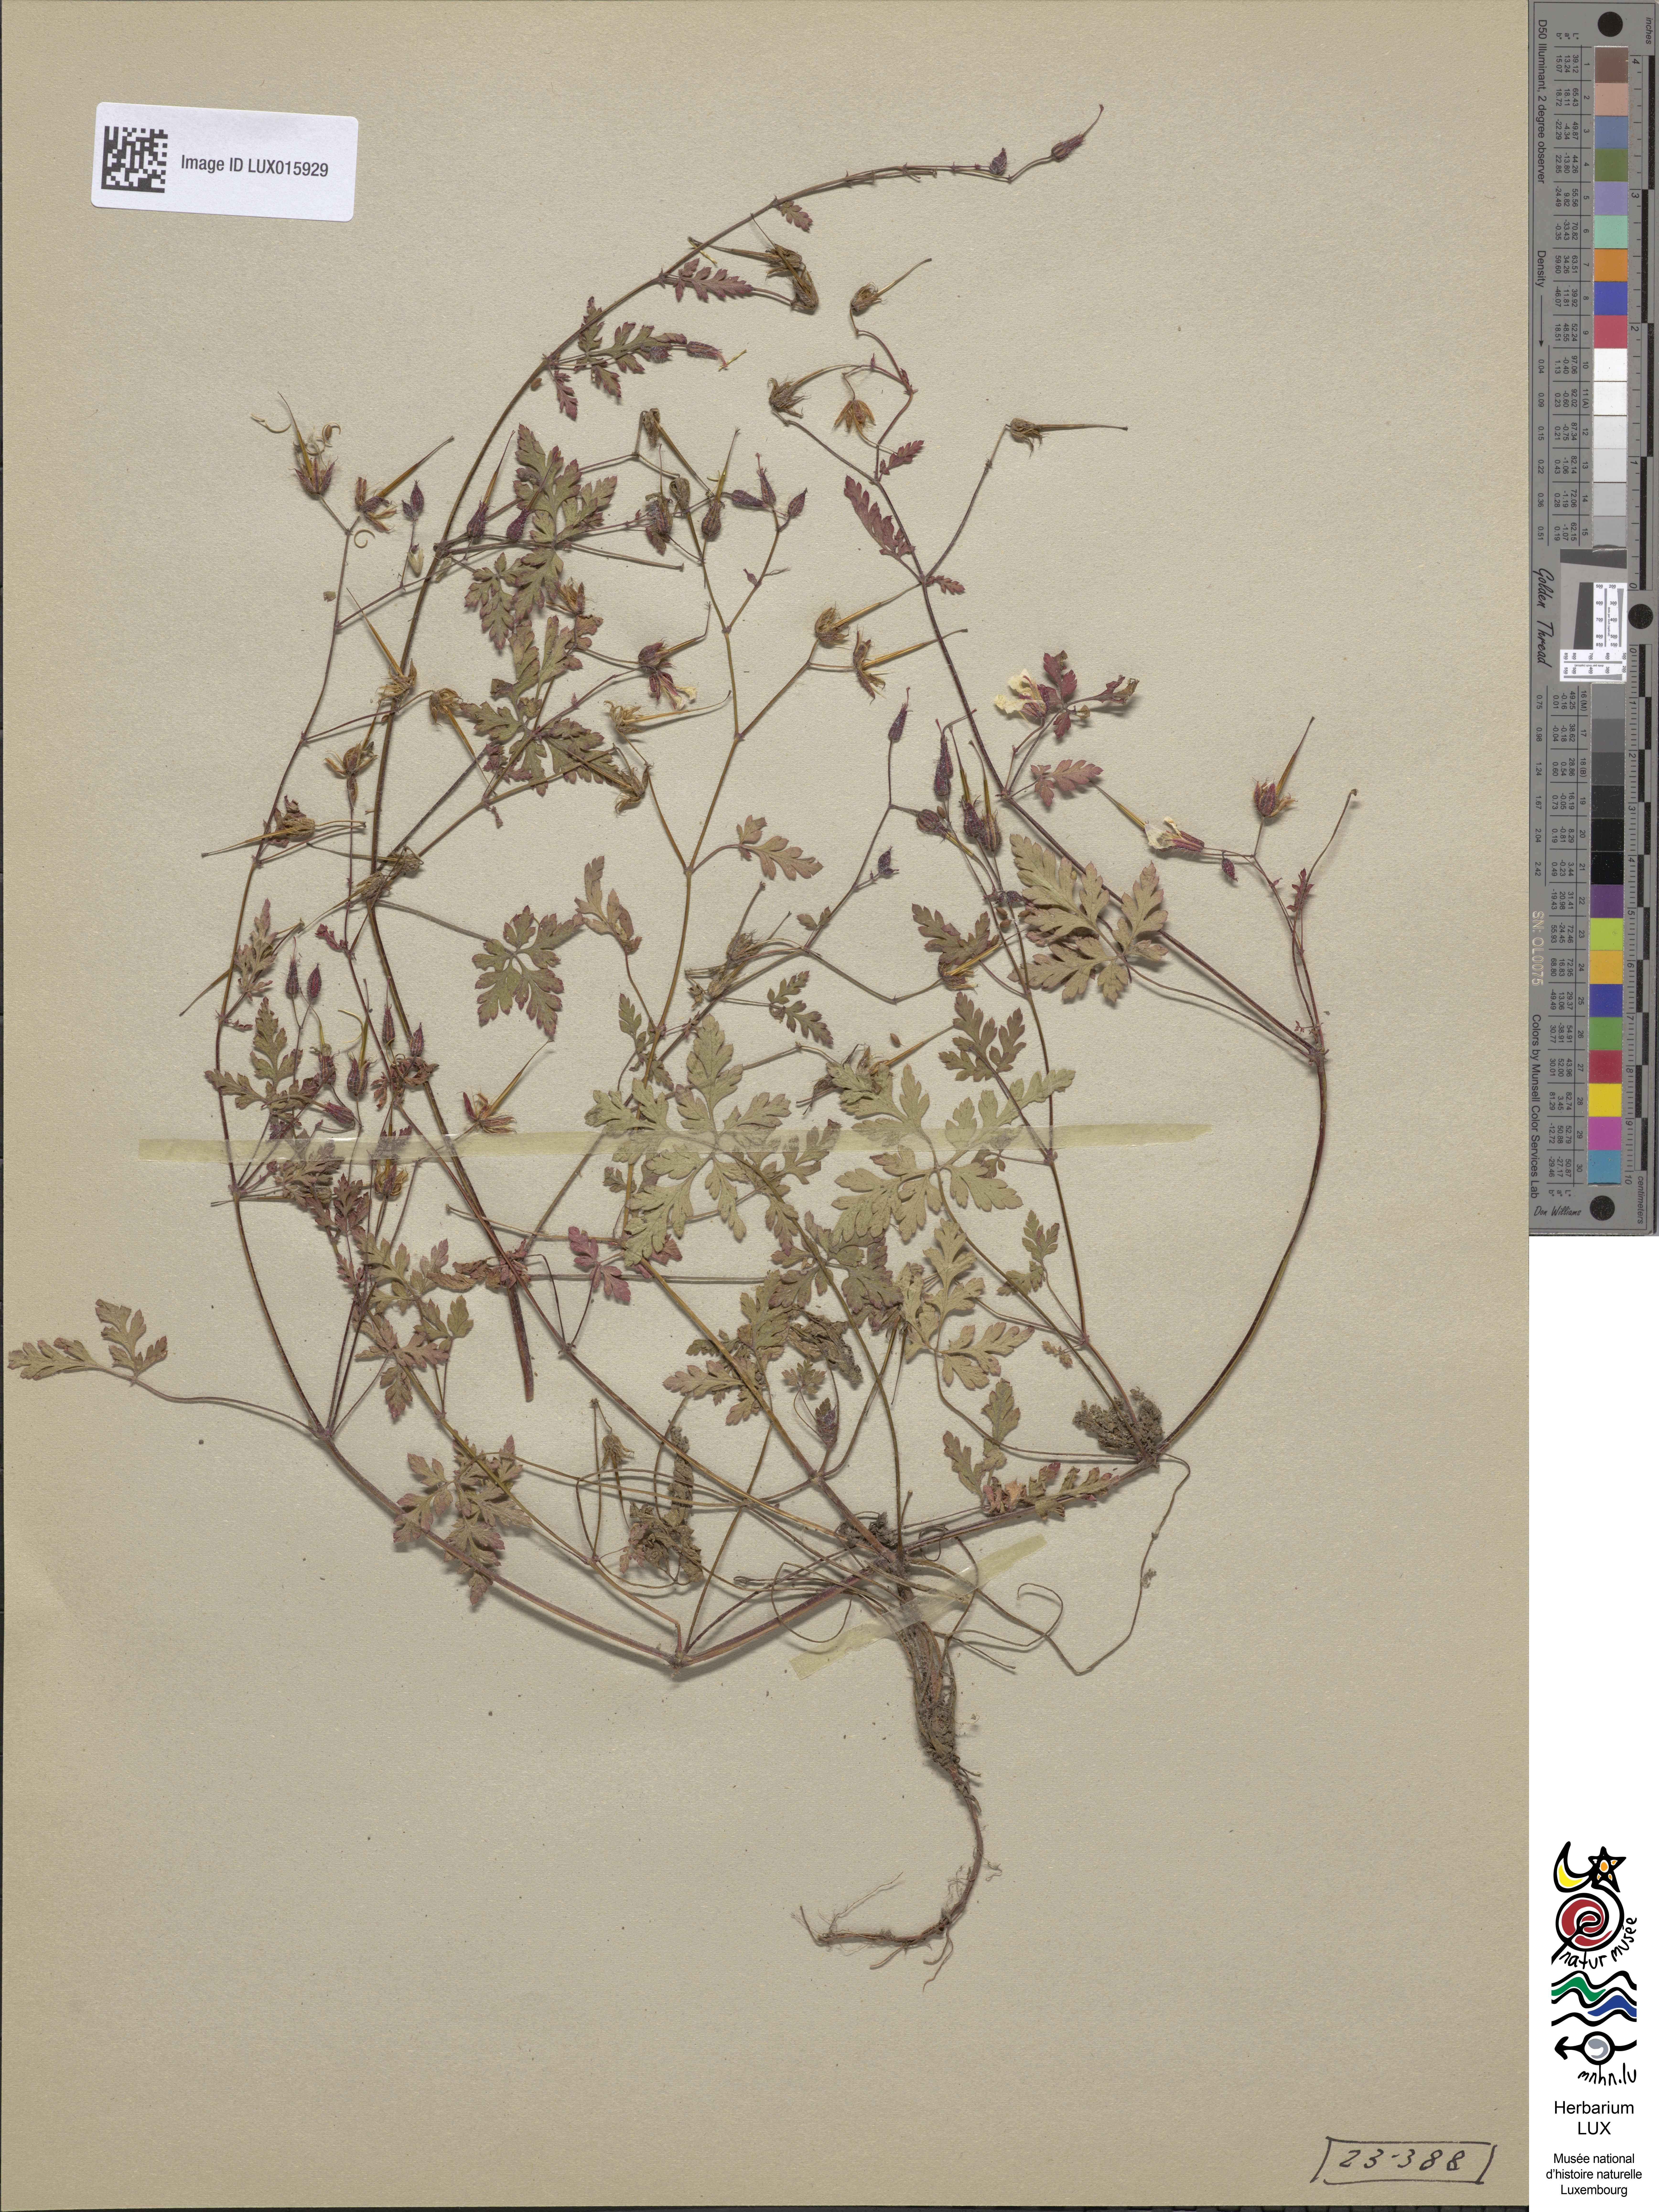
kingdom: Plantae
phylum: Tracheophyta
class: Magnoliopsida
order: Geraniales
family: Geraniaceae
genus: Geranium
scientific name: Geranium robertianum
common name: Herb-robert
